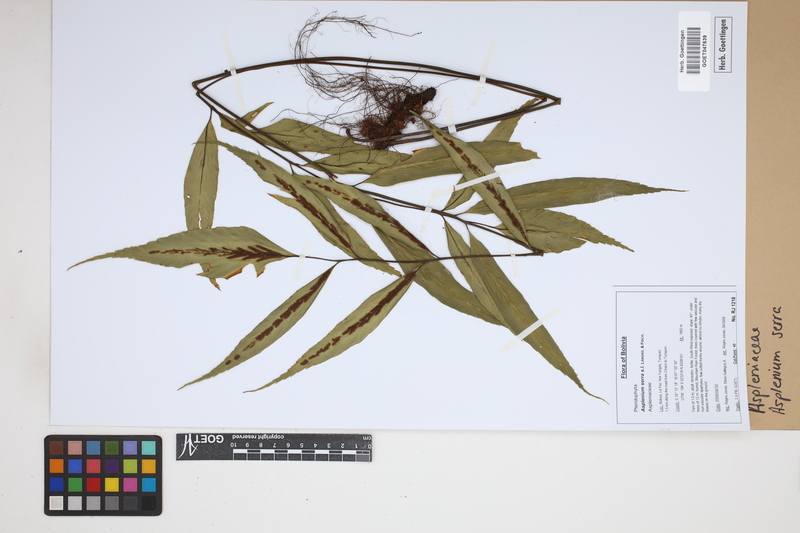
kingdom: Plantae
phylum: Tracheophyta
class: Polypodiopsida
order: Polypodiales
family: Aspleniaceae
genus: Asplenium
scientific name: Asplenium serra
